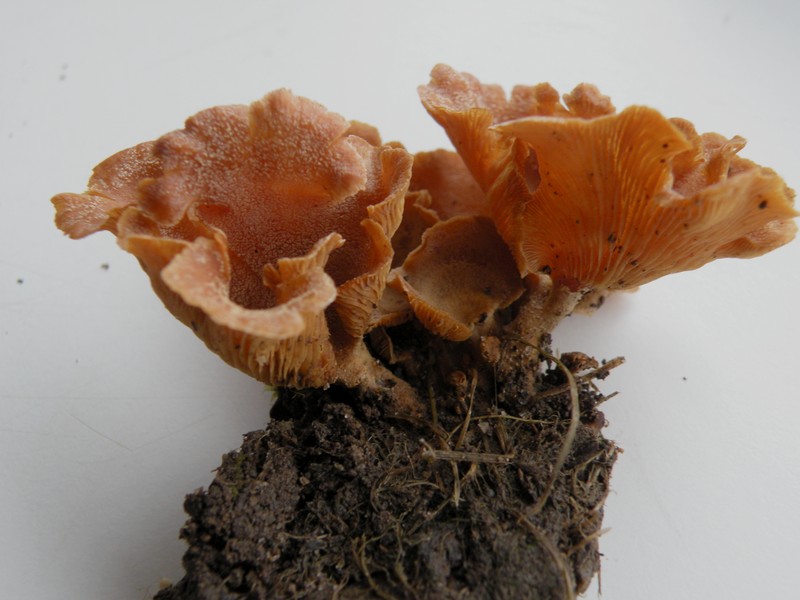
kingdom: Fungi
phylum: Basidiomycota
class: Agaricomycetes
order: Agaricales
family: Mycenaceae
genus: Panellus
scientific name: Panellus stipticus
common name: kliddet epaulethat
